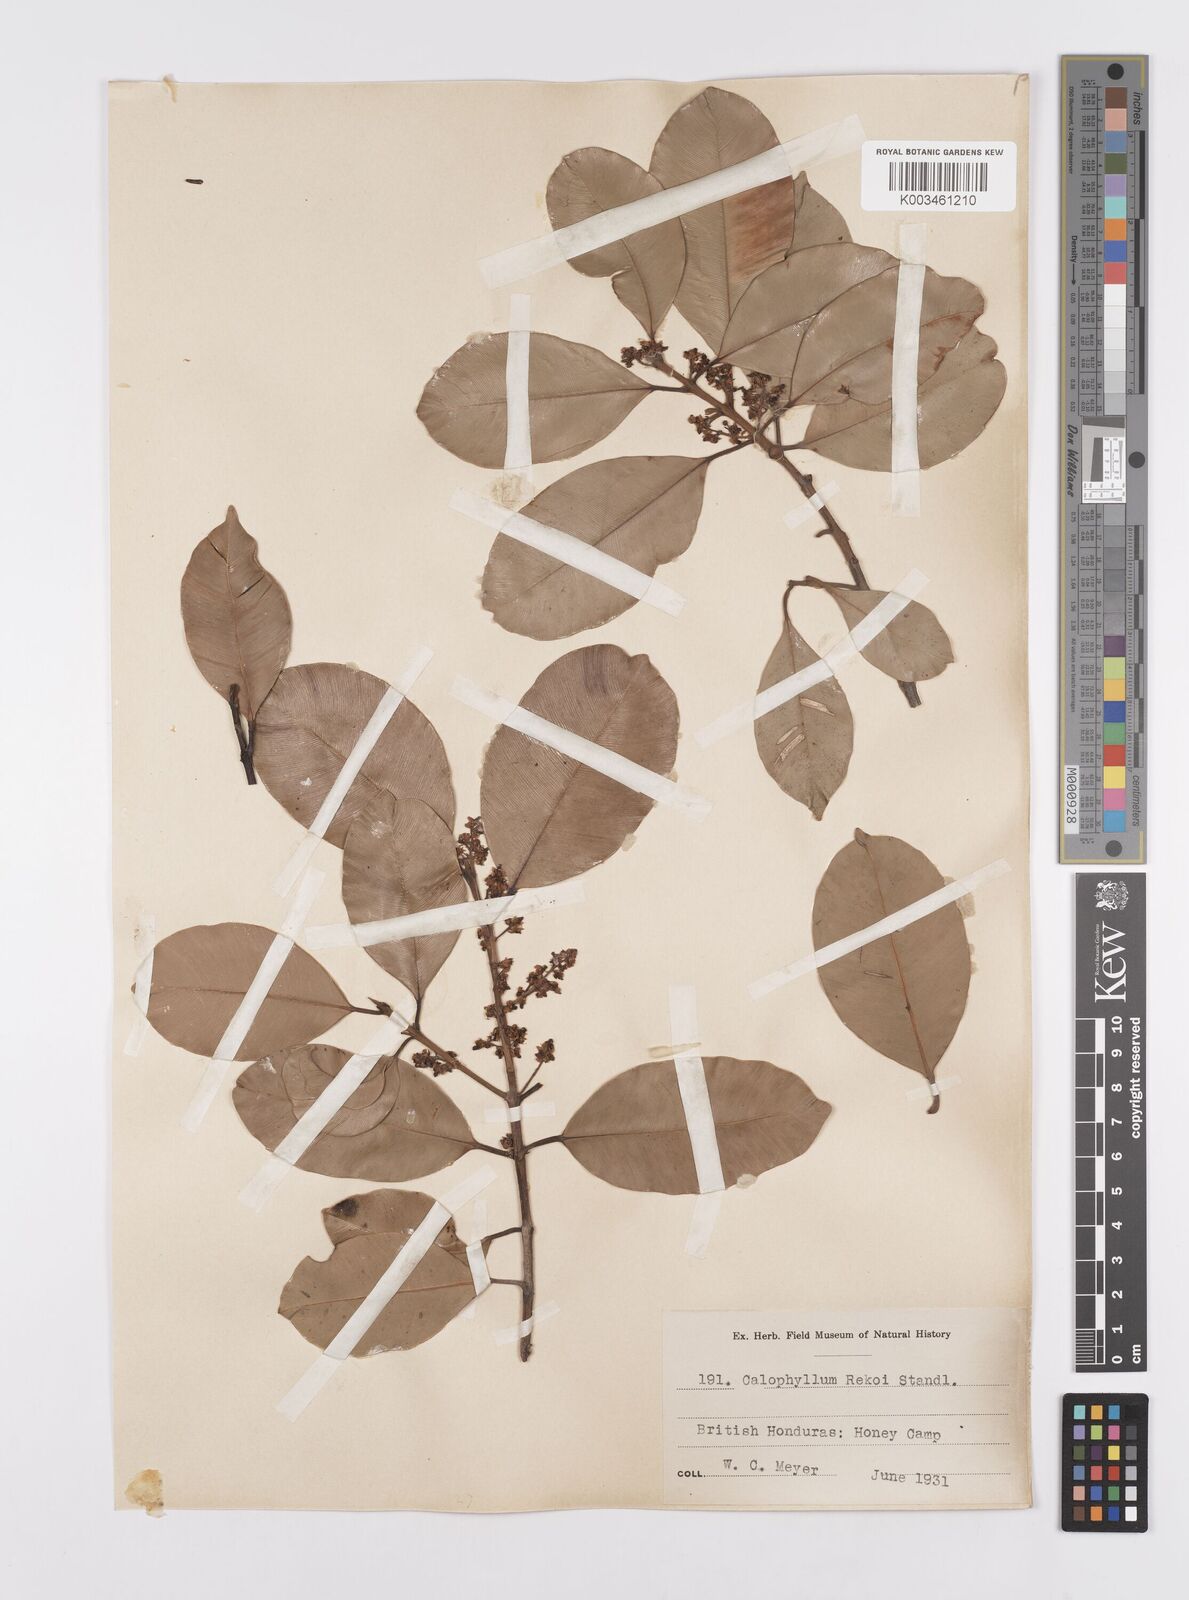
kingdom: Plantae
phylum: Tracheophyta
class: Magnoliopsida
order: Malpighiales
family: Calophyllaceae
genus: Calophyllum
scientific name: Calophyllum brasiliense
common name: Santa maria
